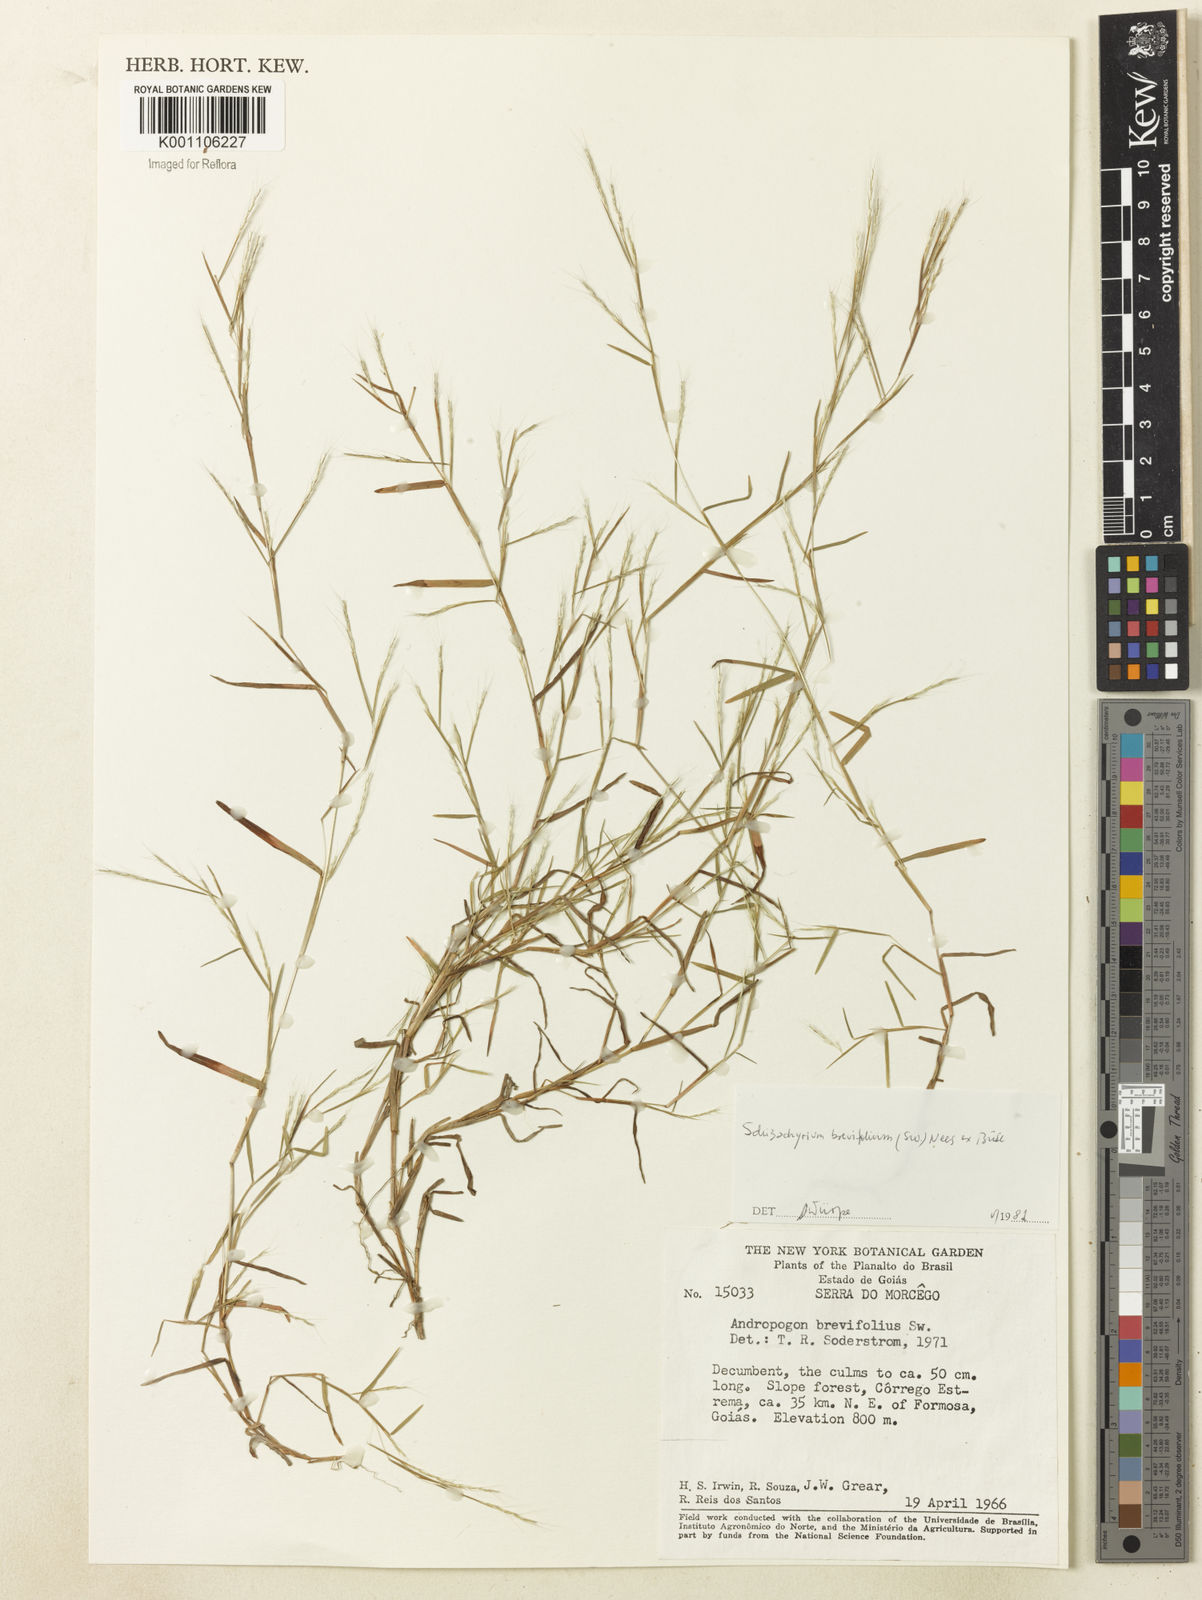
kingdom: Plantae
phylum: Tracheophyta
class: Liliopsida
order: Poales
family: Poaceae
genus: Schizachyrium
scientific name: Schizachyrium brevifolium
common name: Serillo dulce
